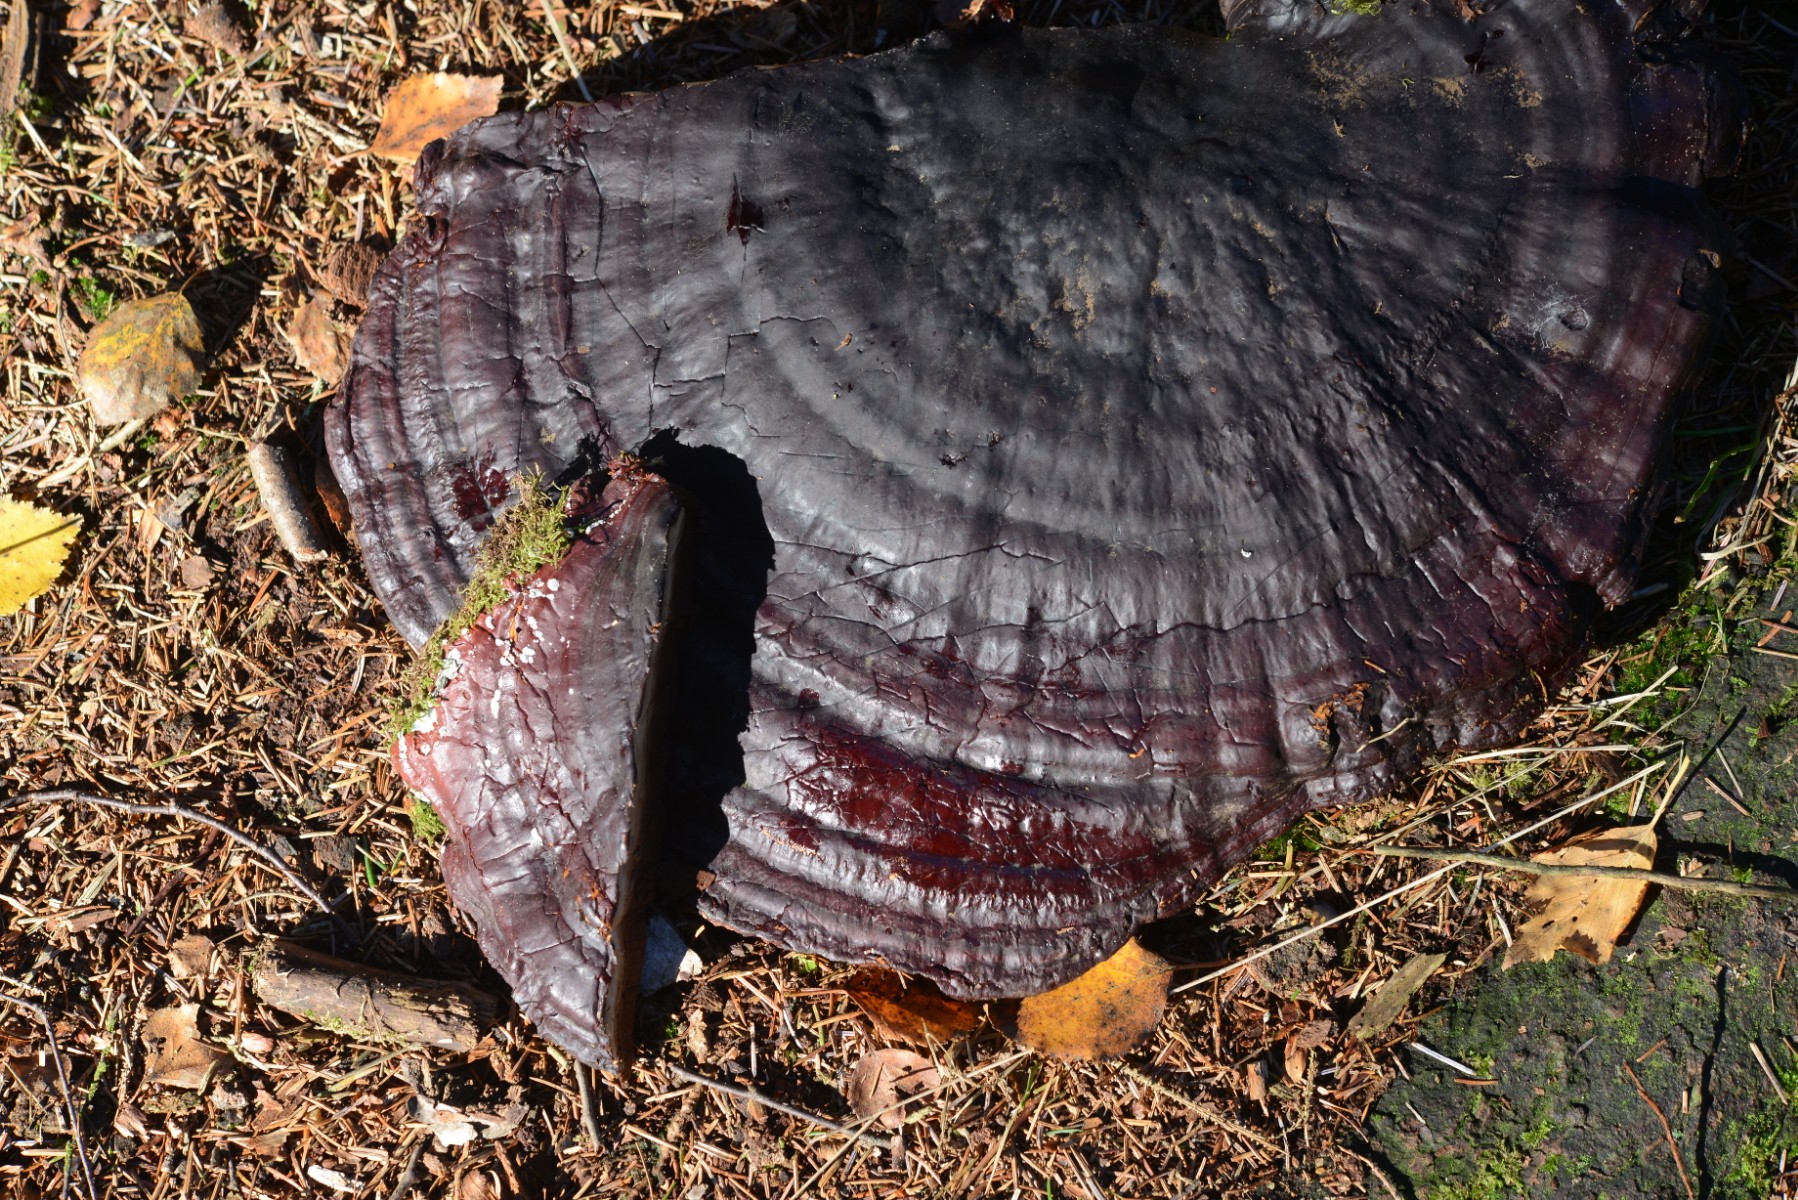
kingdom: Fungi
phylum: Basidiomycota
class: Agaricomycetes
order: Polyporales
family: Polyporaceae
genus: Ganoderma
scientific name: Ganoderma lucidum
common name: skinnende lakporesvamp
